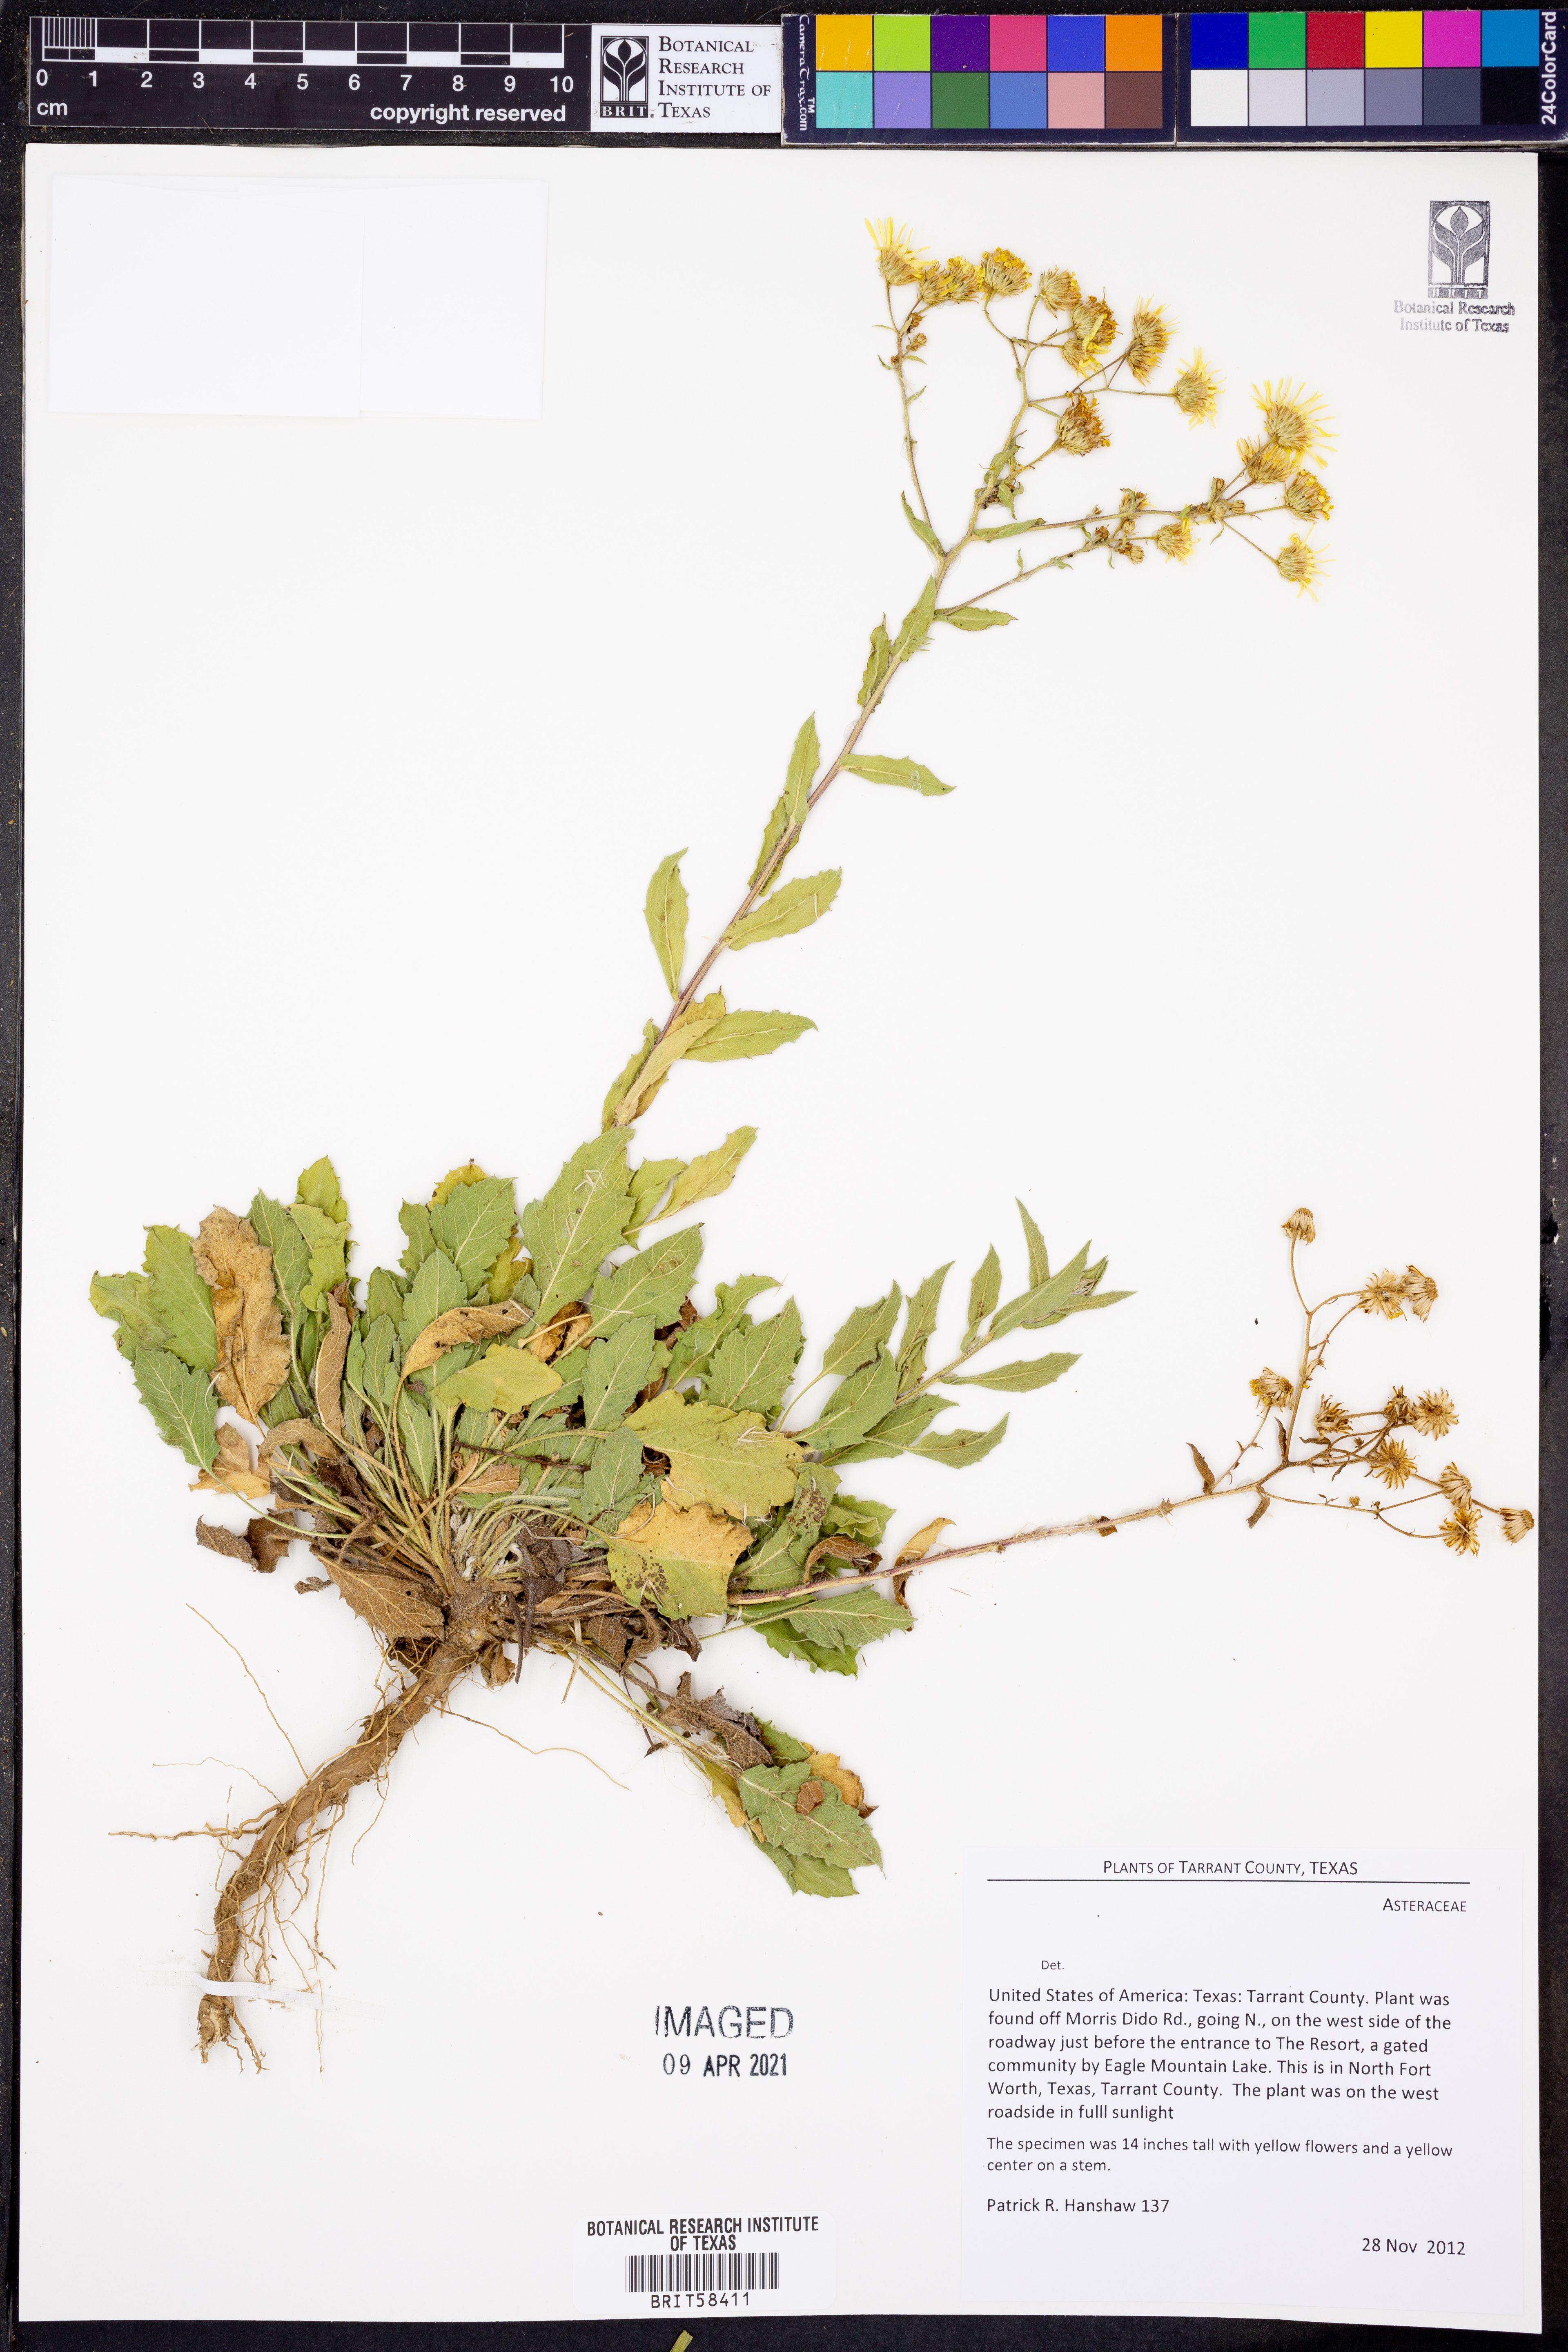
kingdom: Plantae
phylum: Tracheophyta
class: Magnoliopsida
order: Asterales
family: Asteraceae
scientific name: Asteraceae
